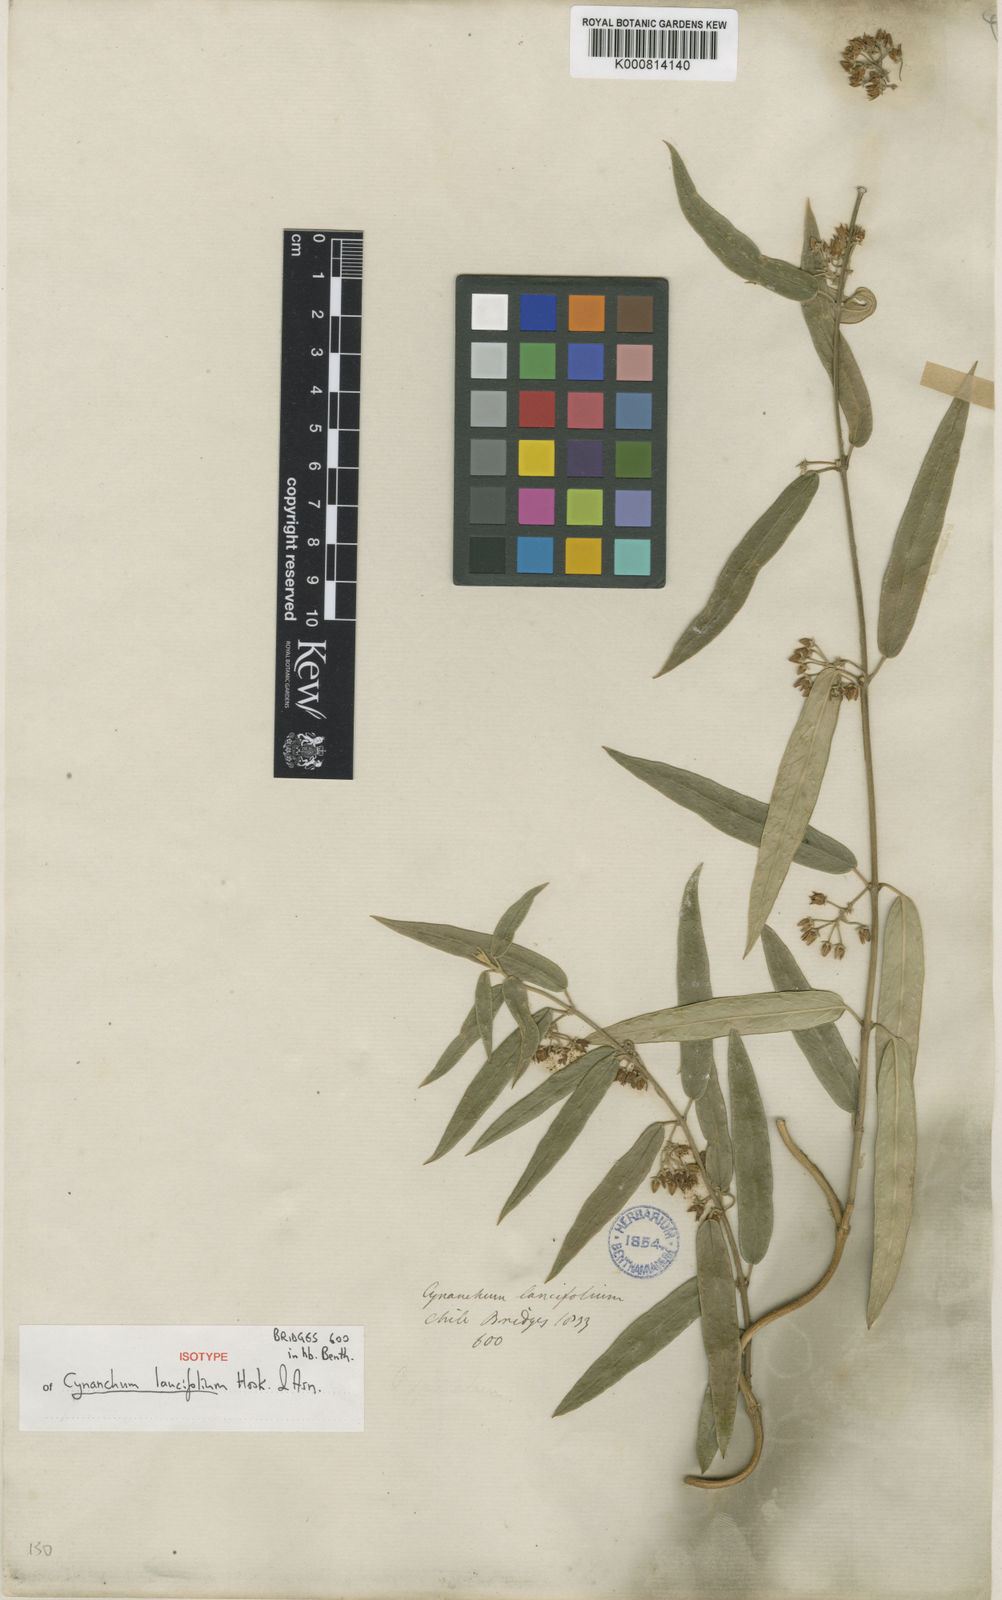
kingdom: Plantae
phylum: Tracheophyta
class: Magnoliopsida
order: Gentianales
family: Apocynaceae
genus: Diplolepis
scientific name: Diplolepis pachyphylla
